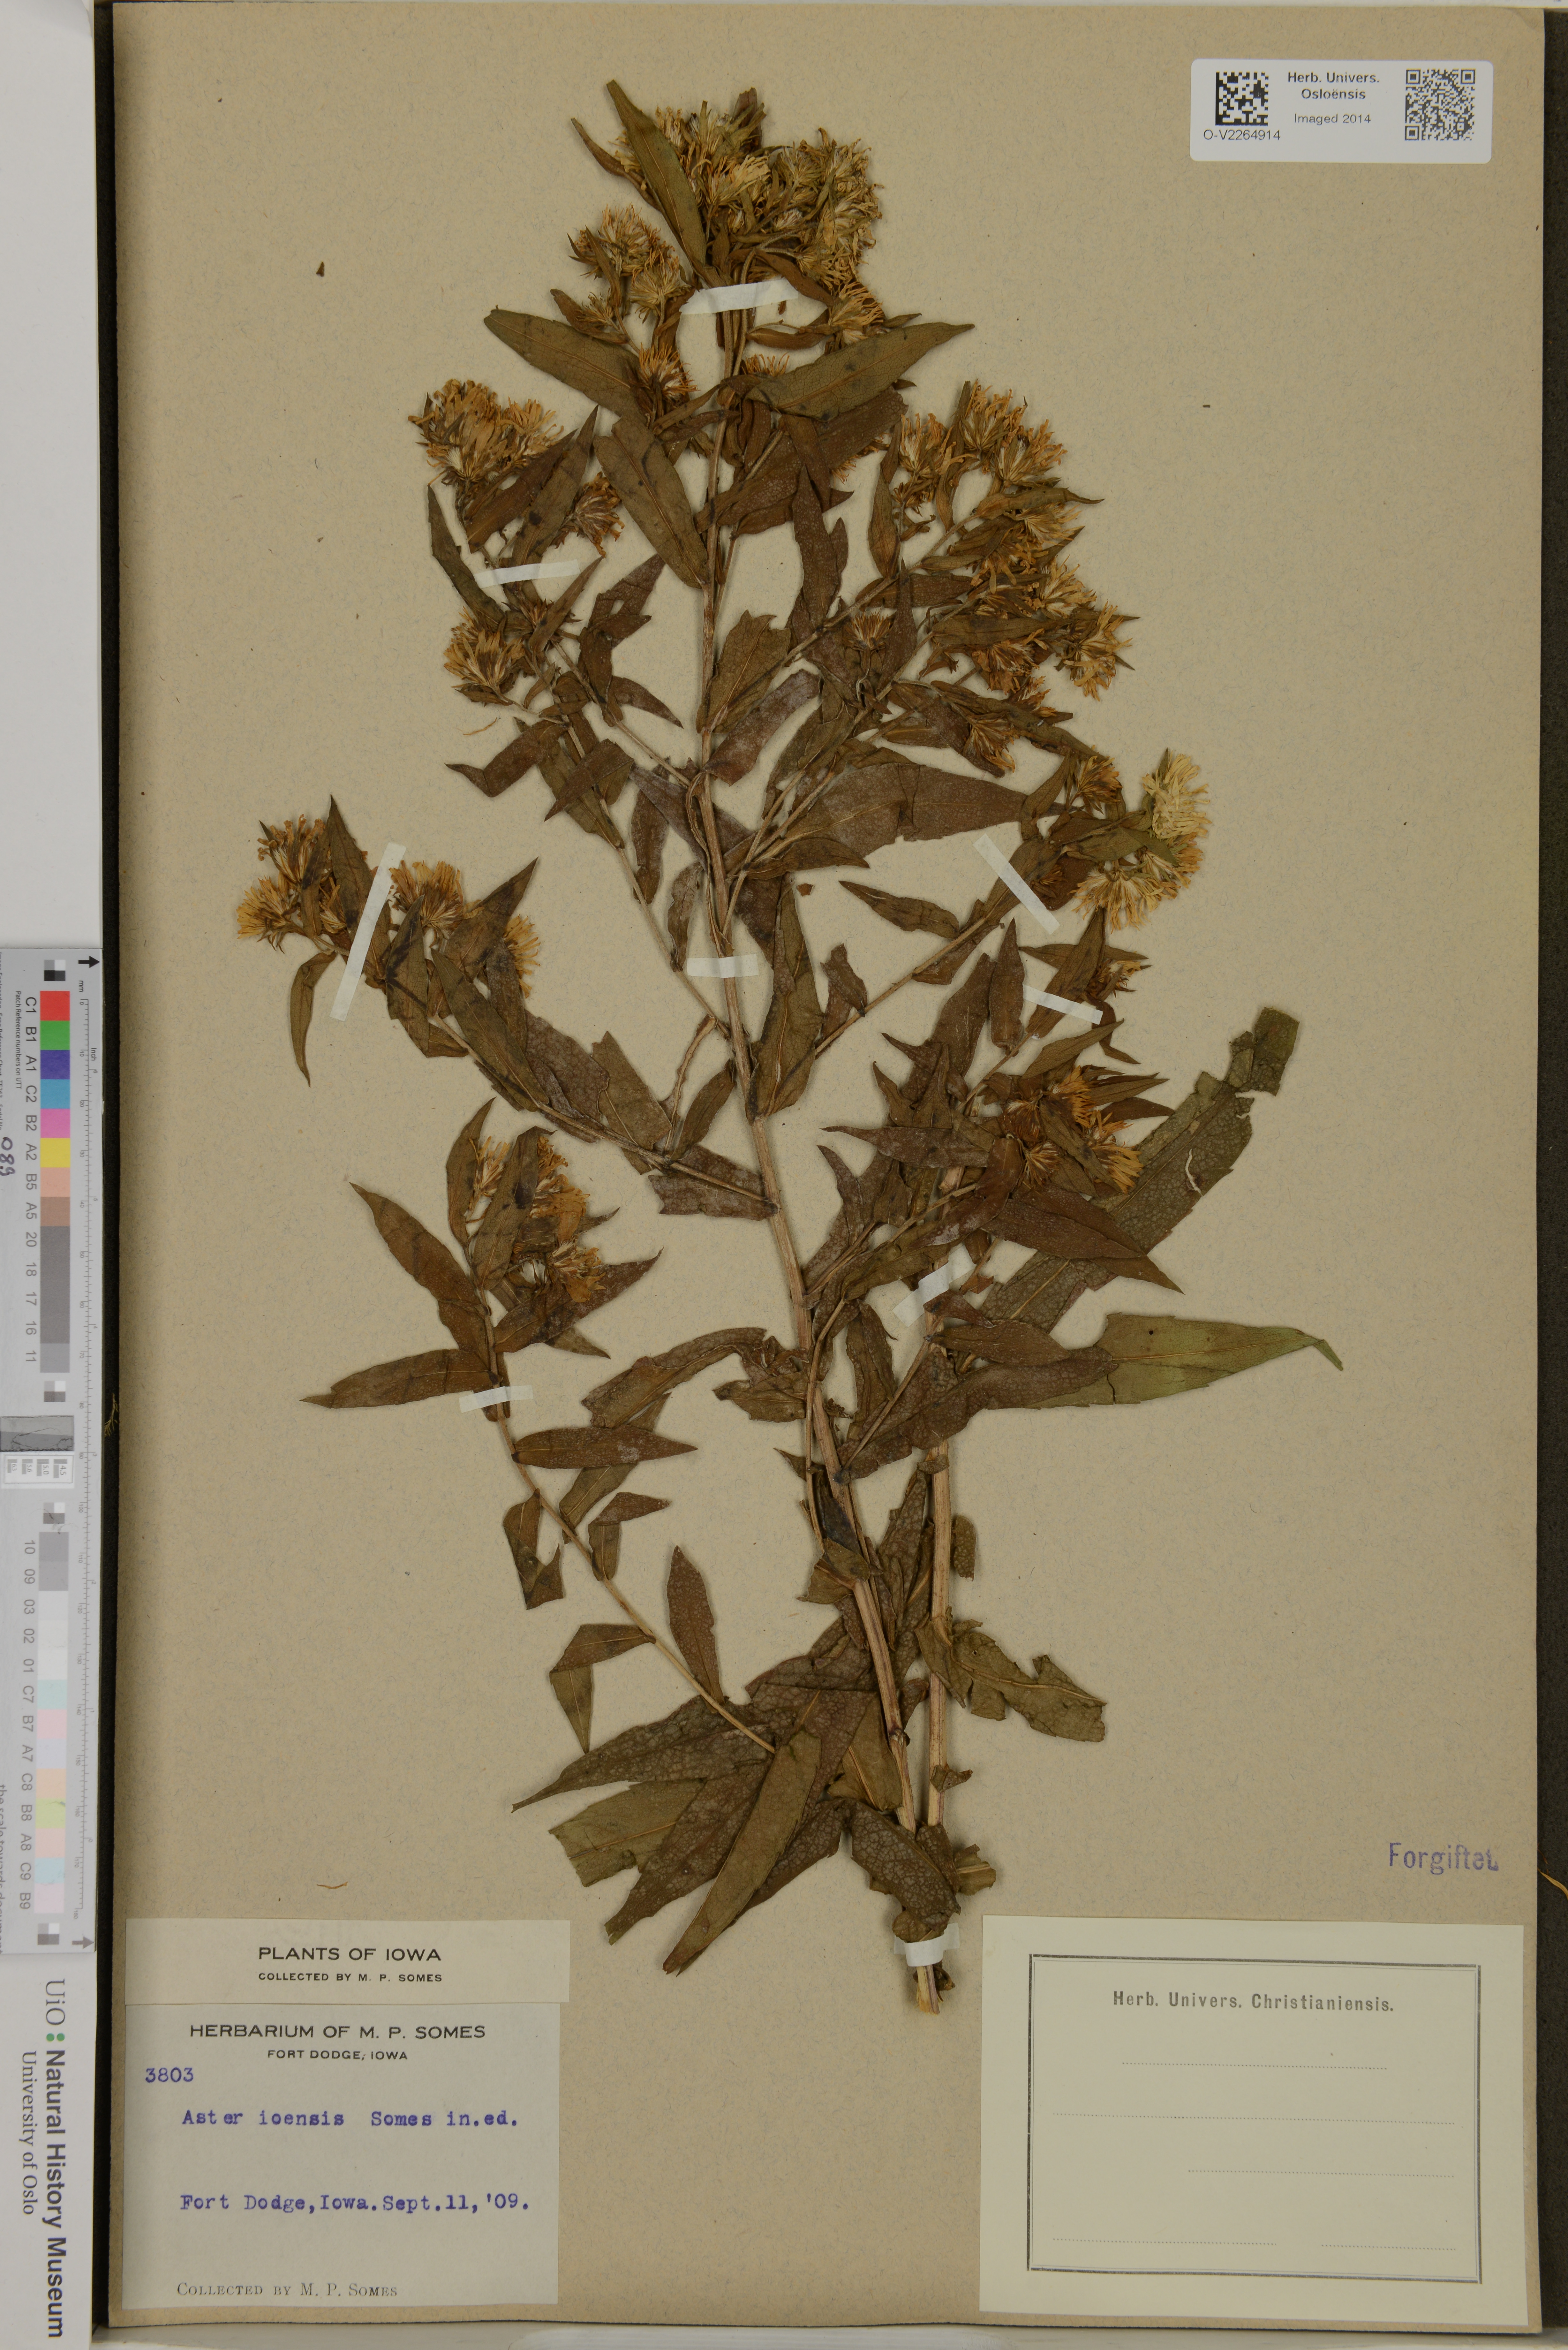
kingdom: Plantae
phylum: Tracheophyta
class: Magnoliopsida
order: Asterales
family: Asteraceae
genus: Aster
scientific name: Aster
